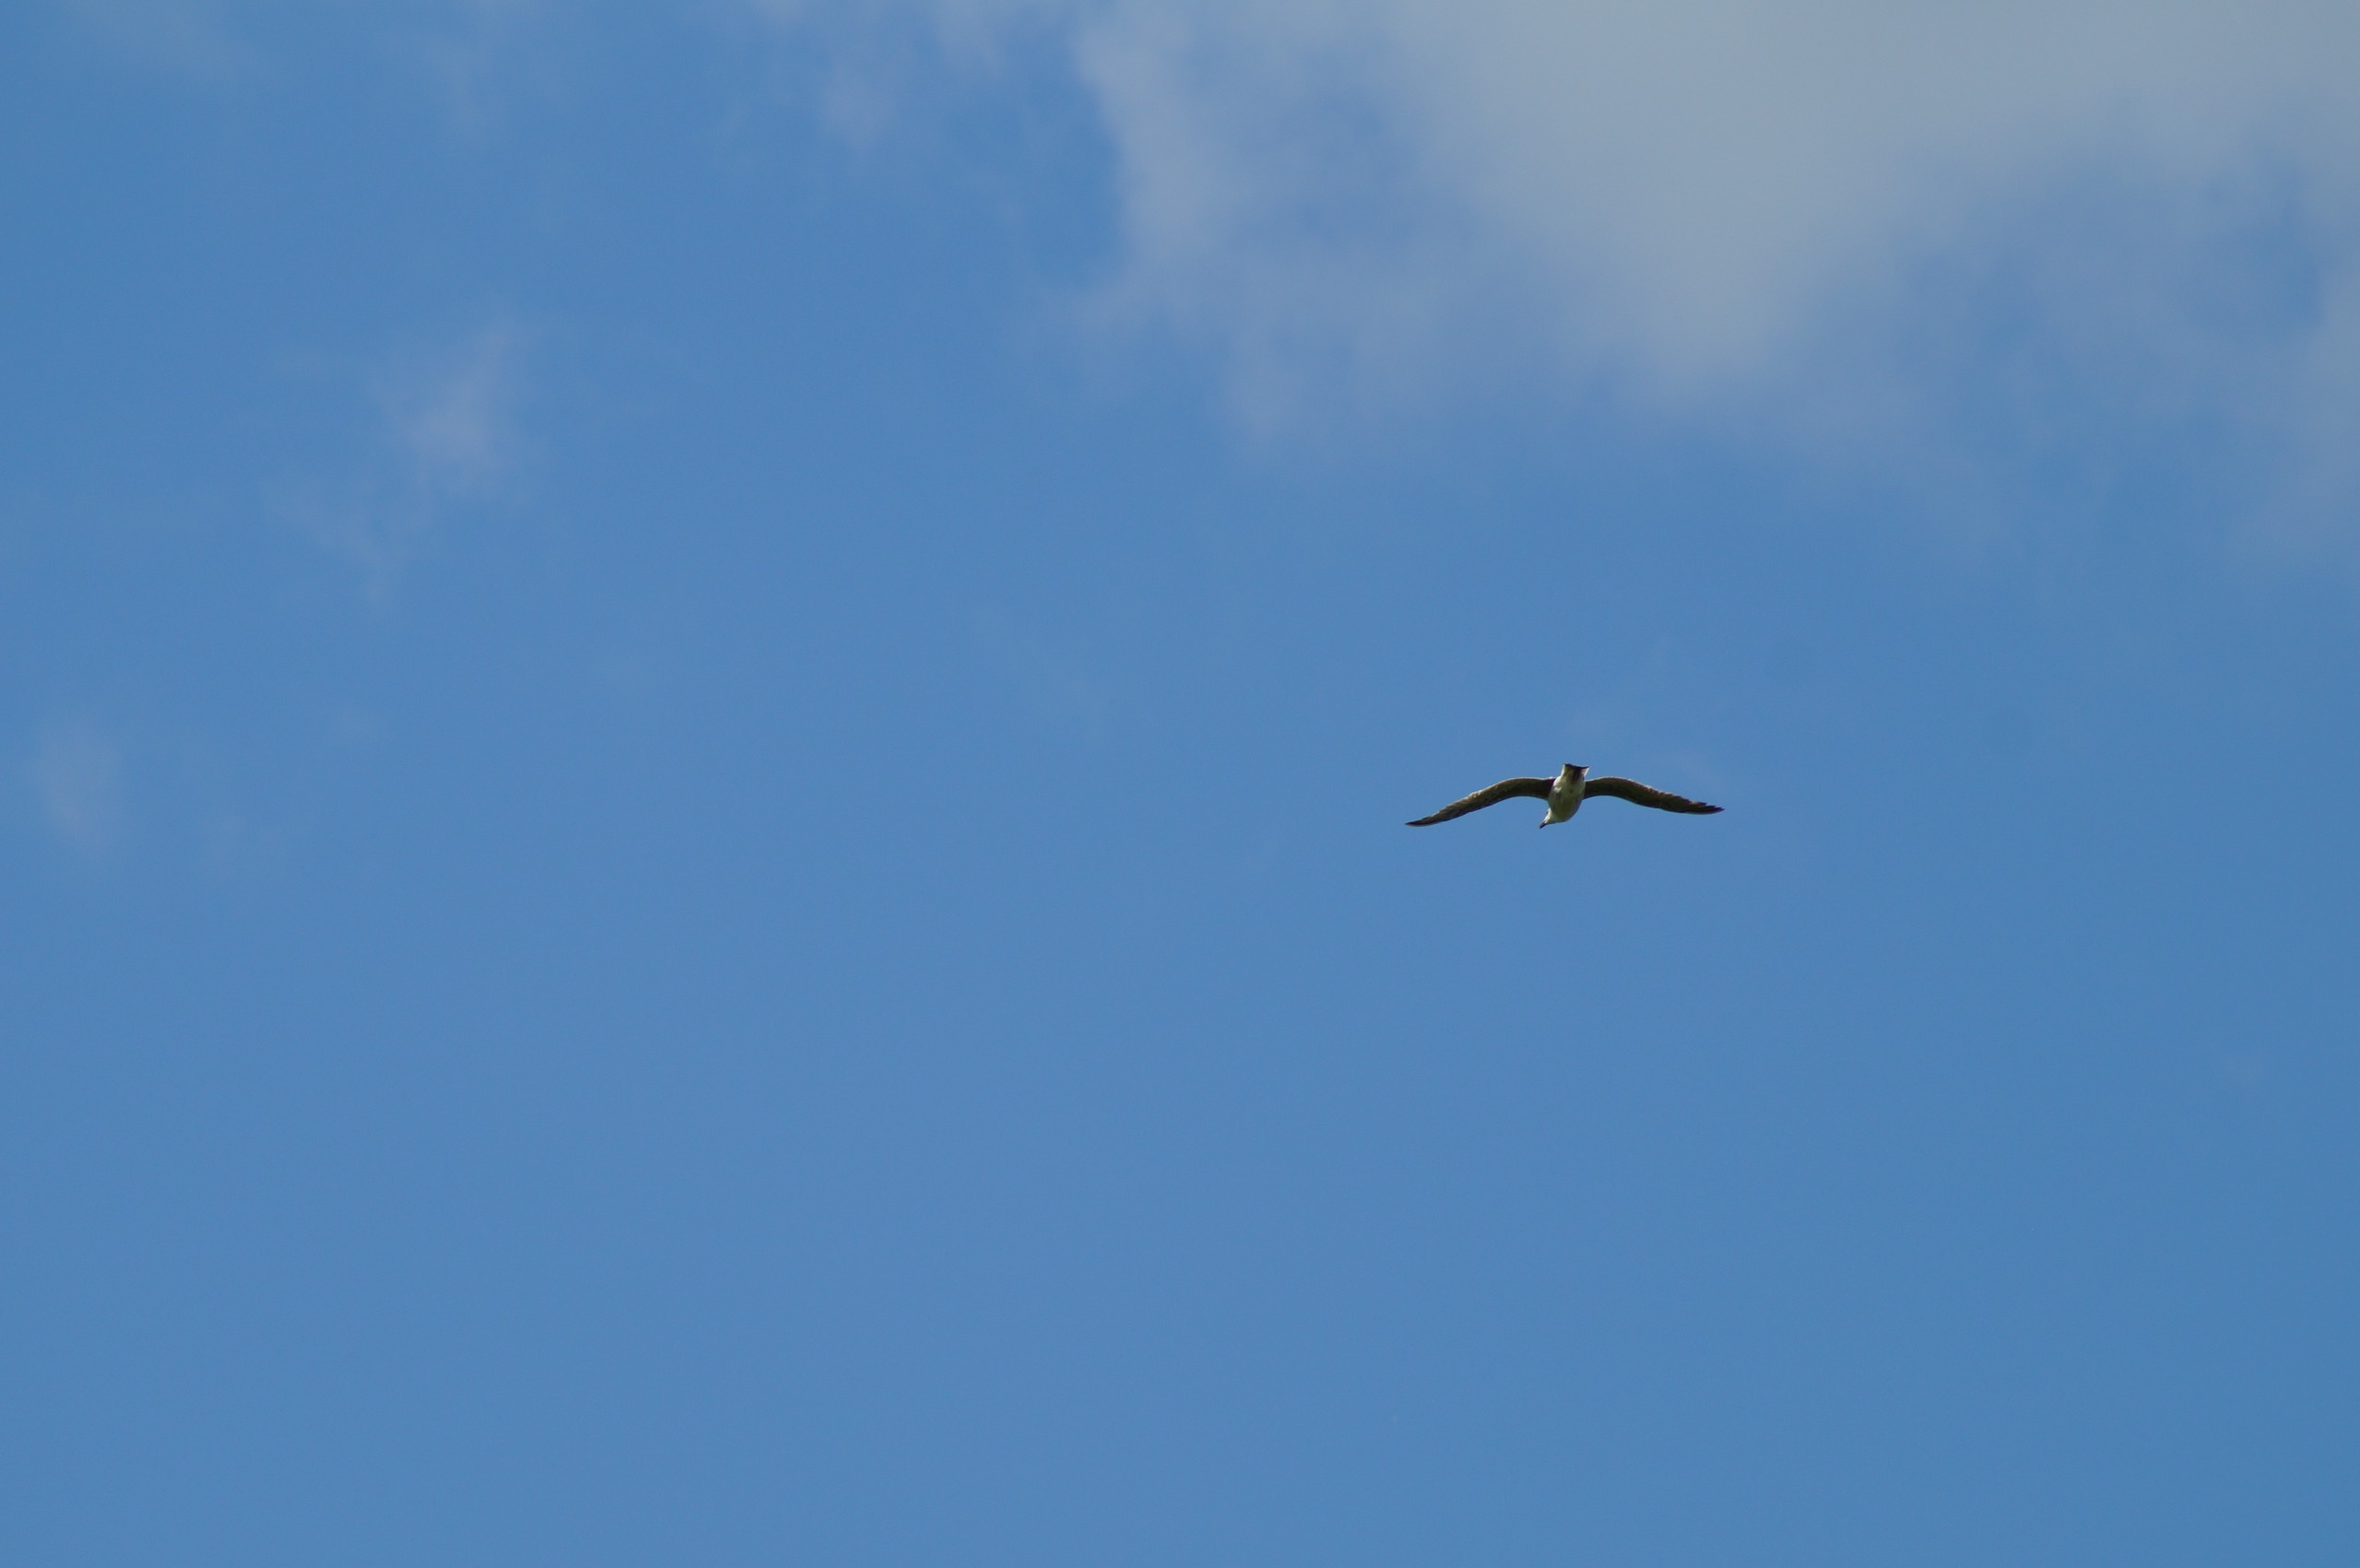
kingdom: Animalia
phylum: Chordata
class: Aves
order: Charadriiformes
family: Laridae
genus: Larus
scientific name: Larus marinus
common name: Svartbag
